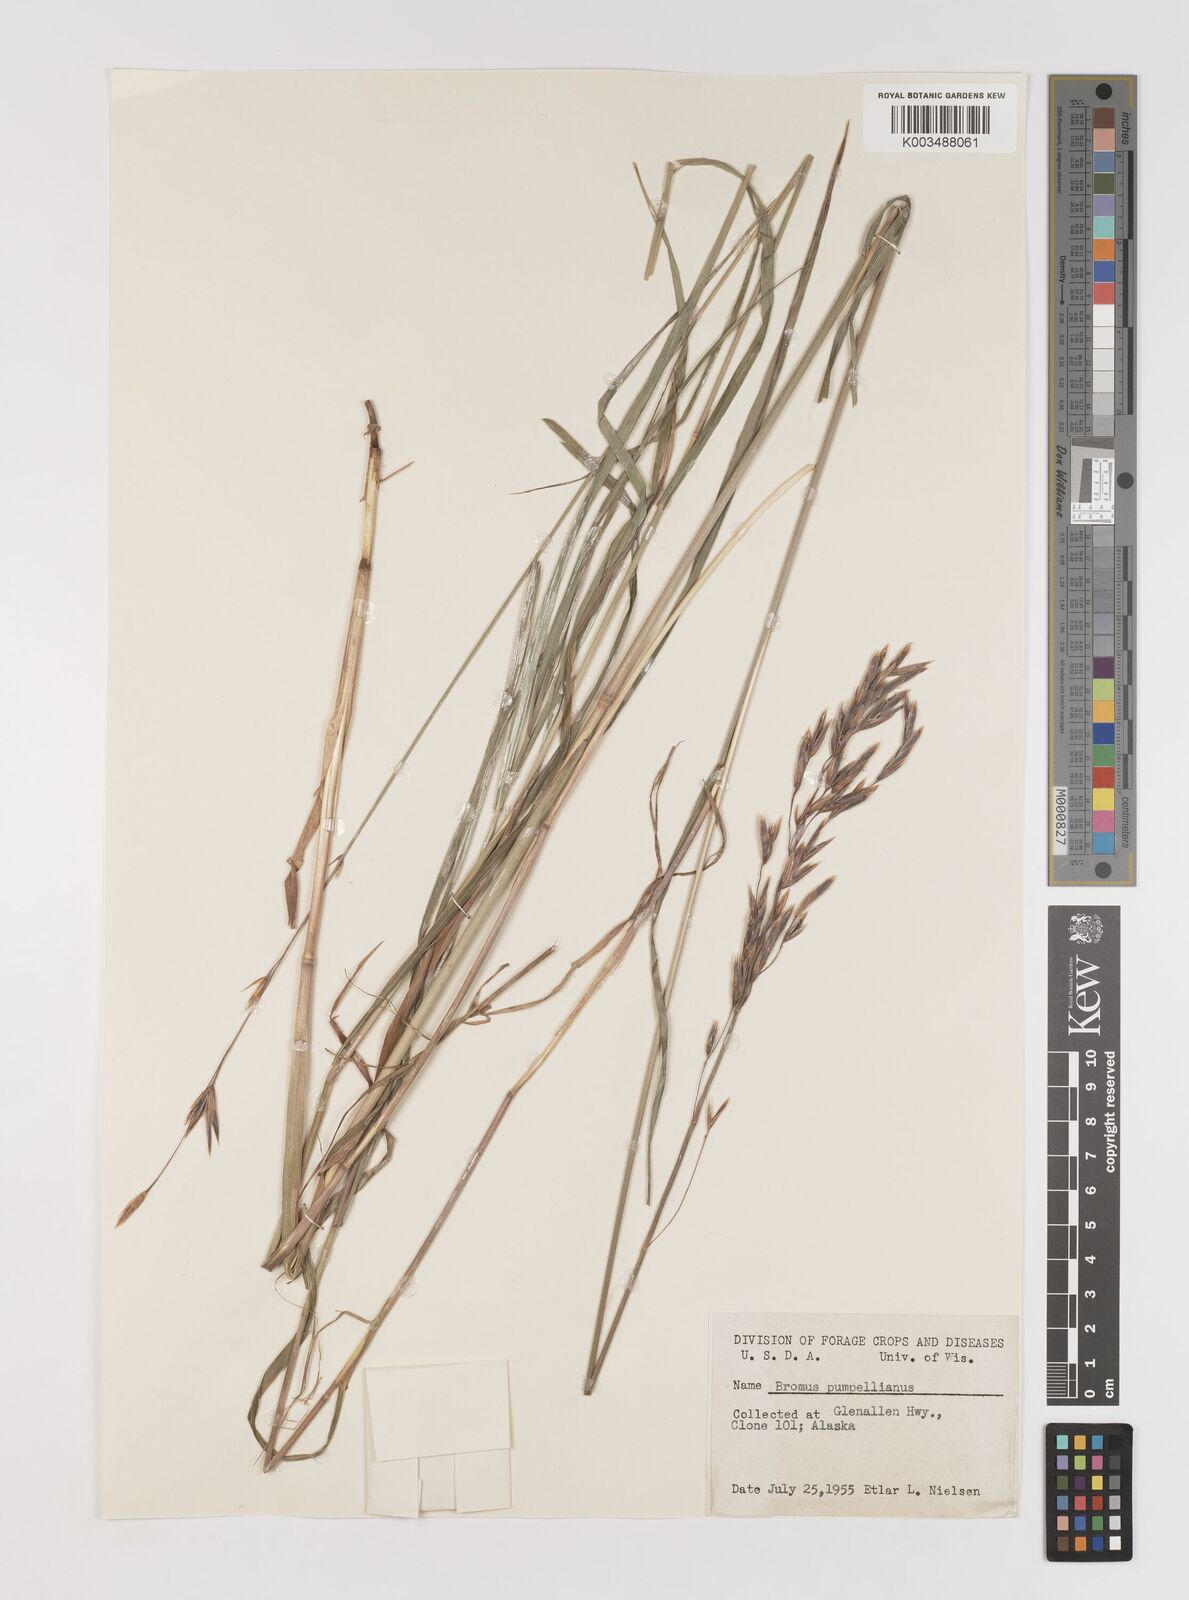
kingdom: Plantae
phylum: Tracheophyta
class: Liliopsida
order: Poales
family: Poaceae
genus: Bromus
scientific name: Bromus pumpellianus
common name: Pumpelly's brome
